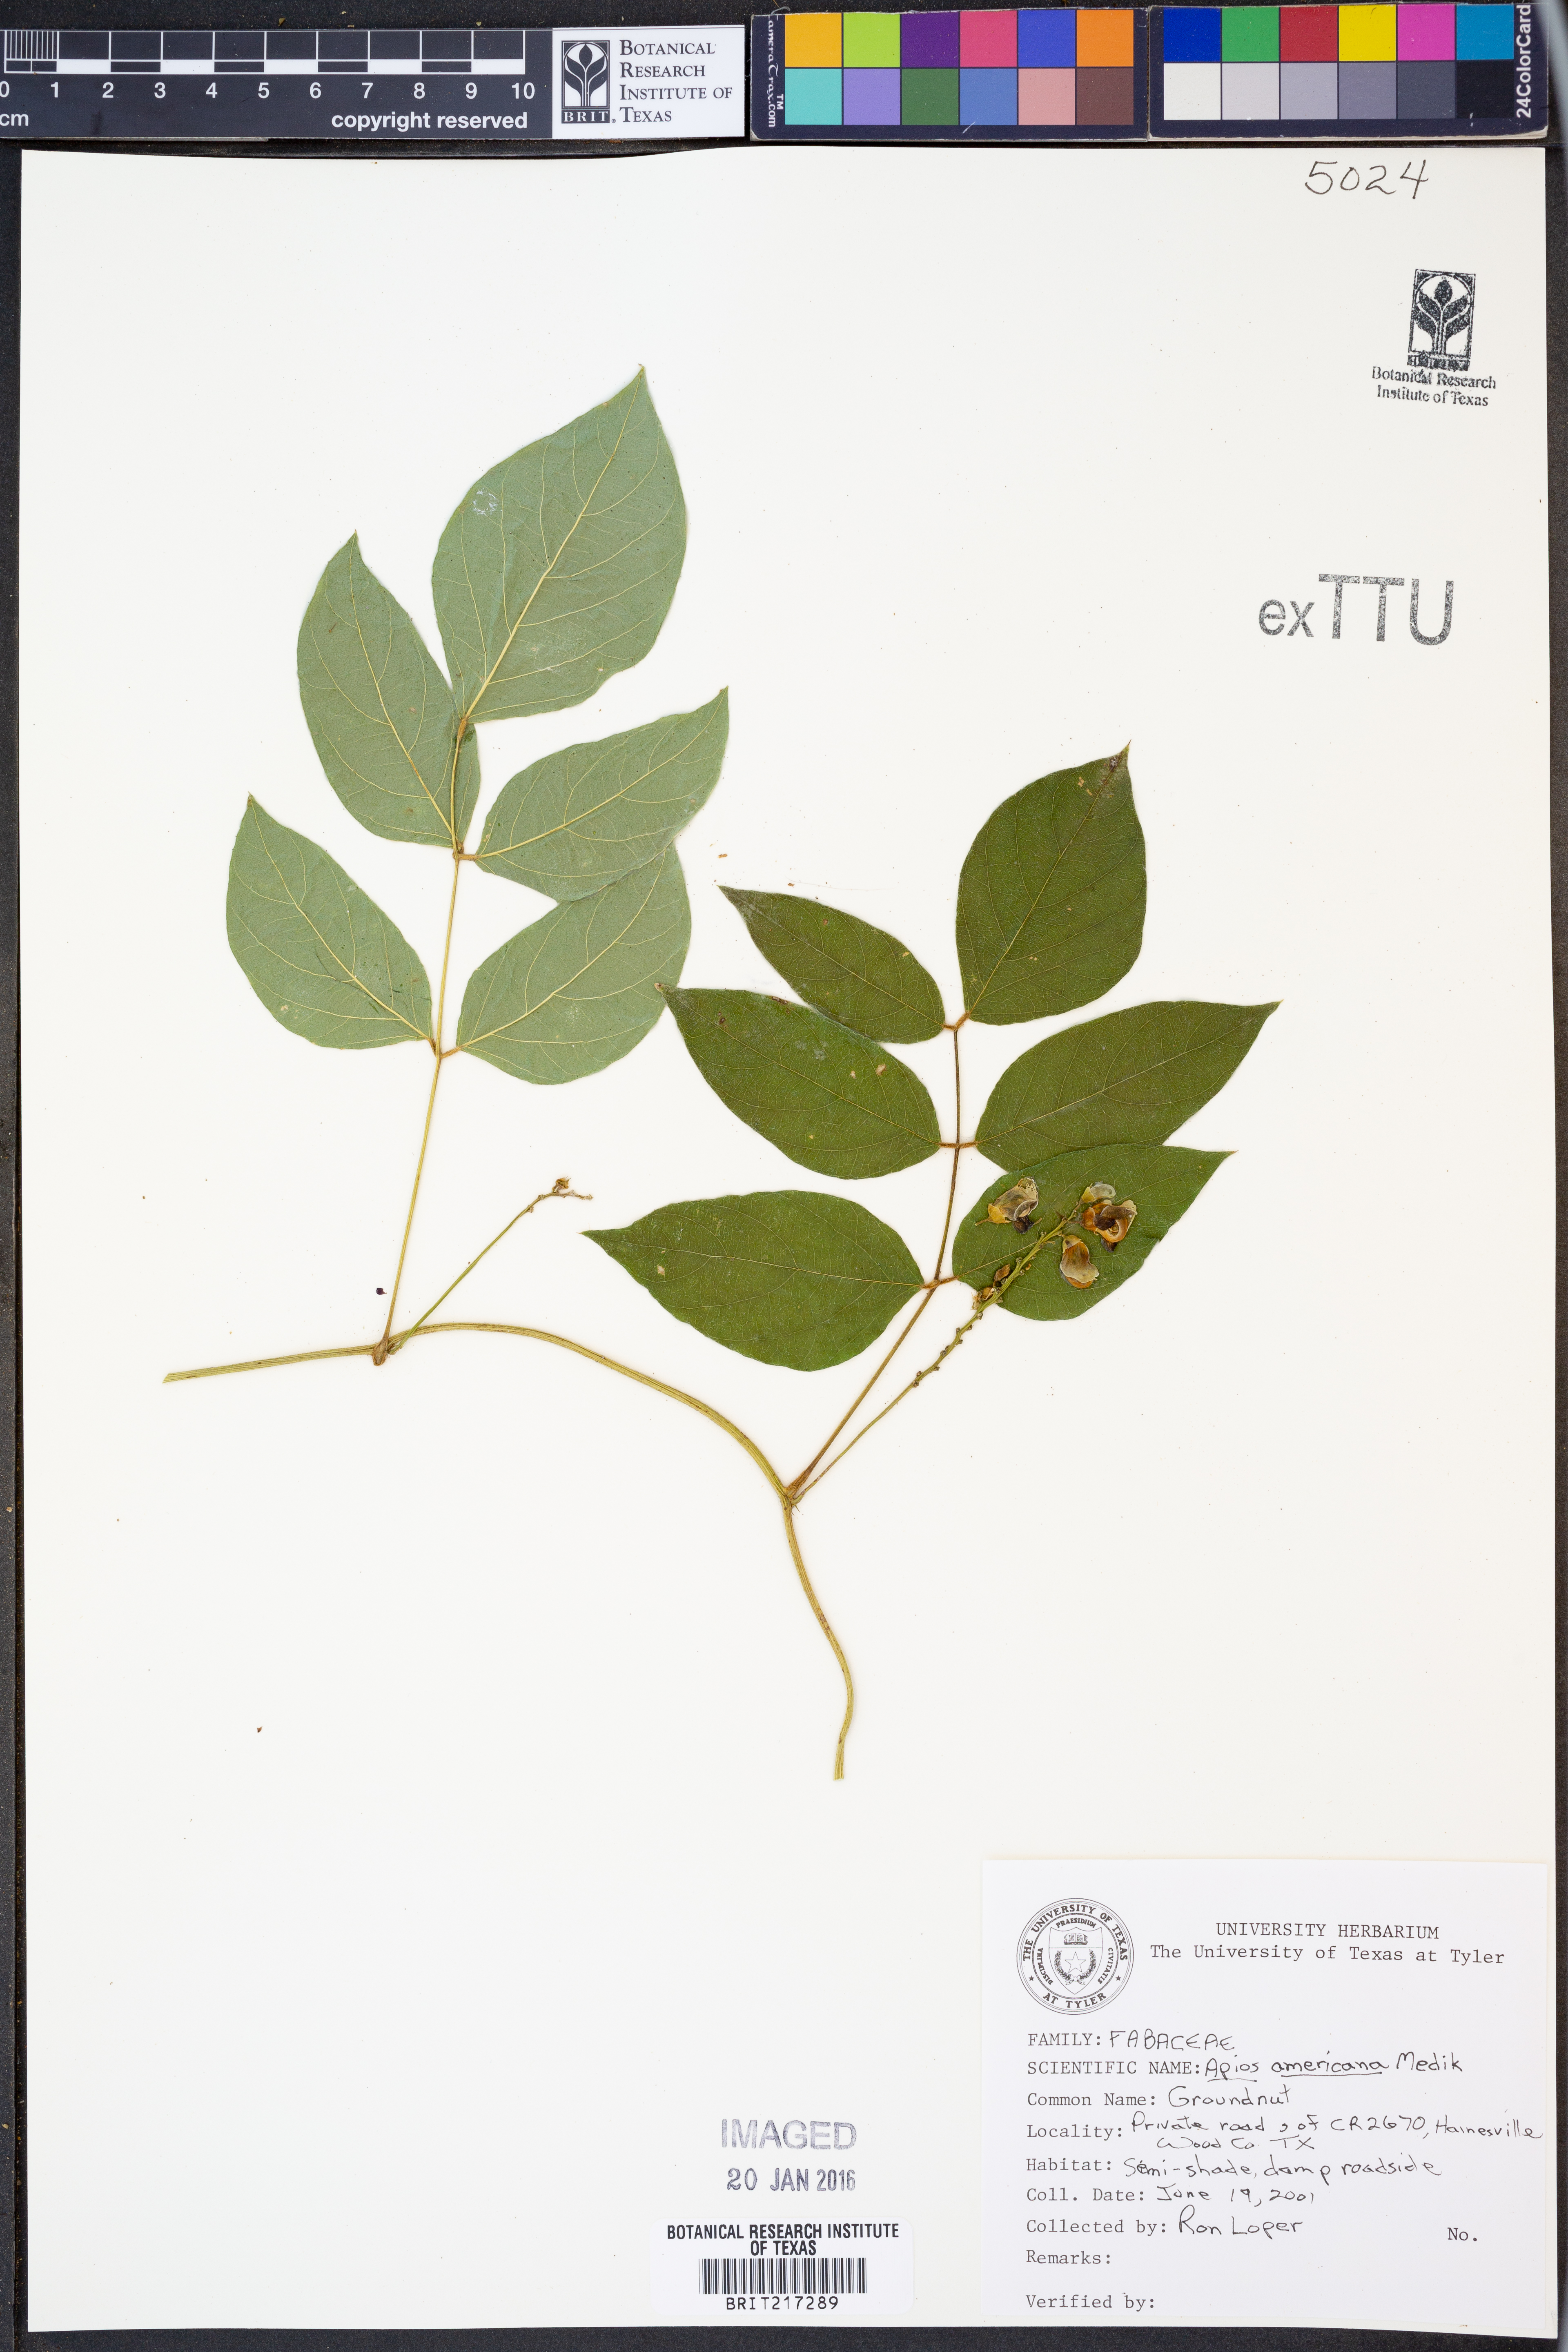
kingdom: Plantae
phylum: Tracheophyta
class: Magnoliopsida
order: Fabales
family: Fabaceae
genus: Apios
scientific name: Apios americana
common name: American potato-bean
